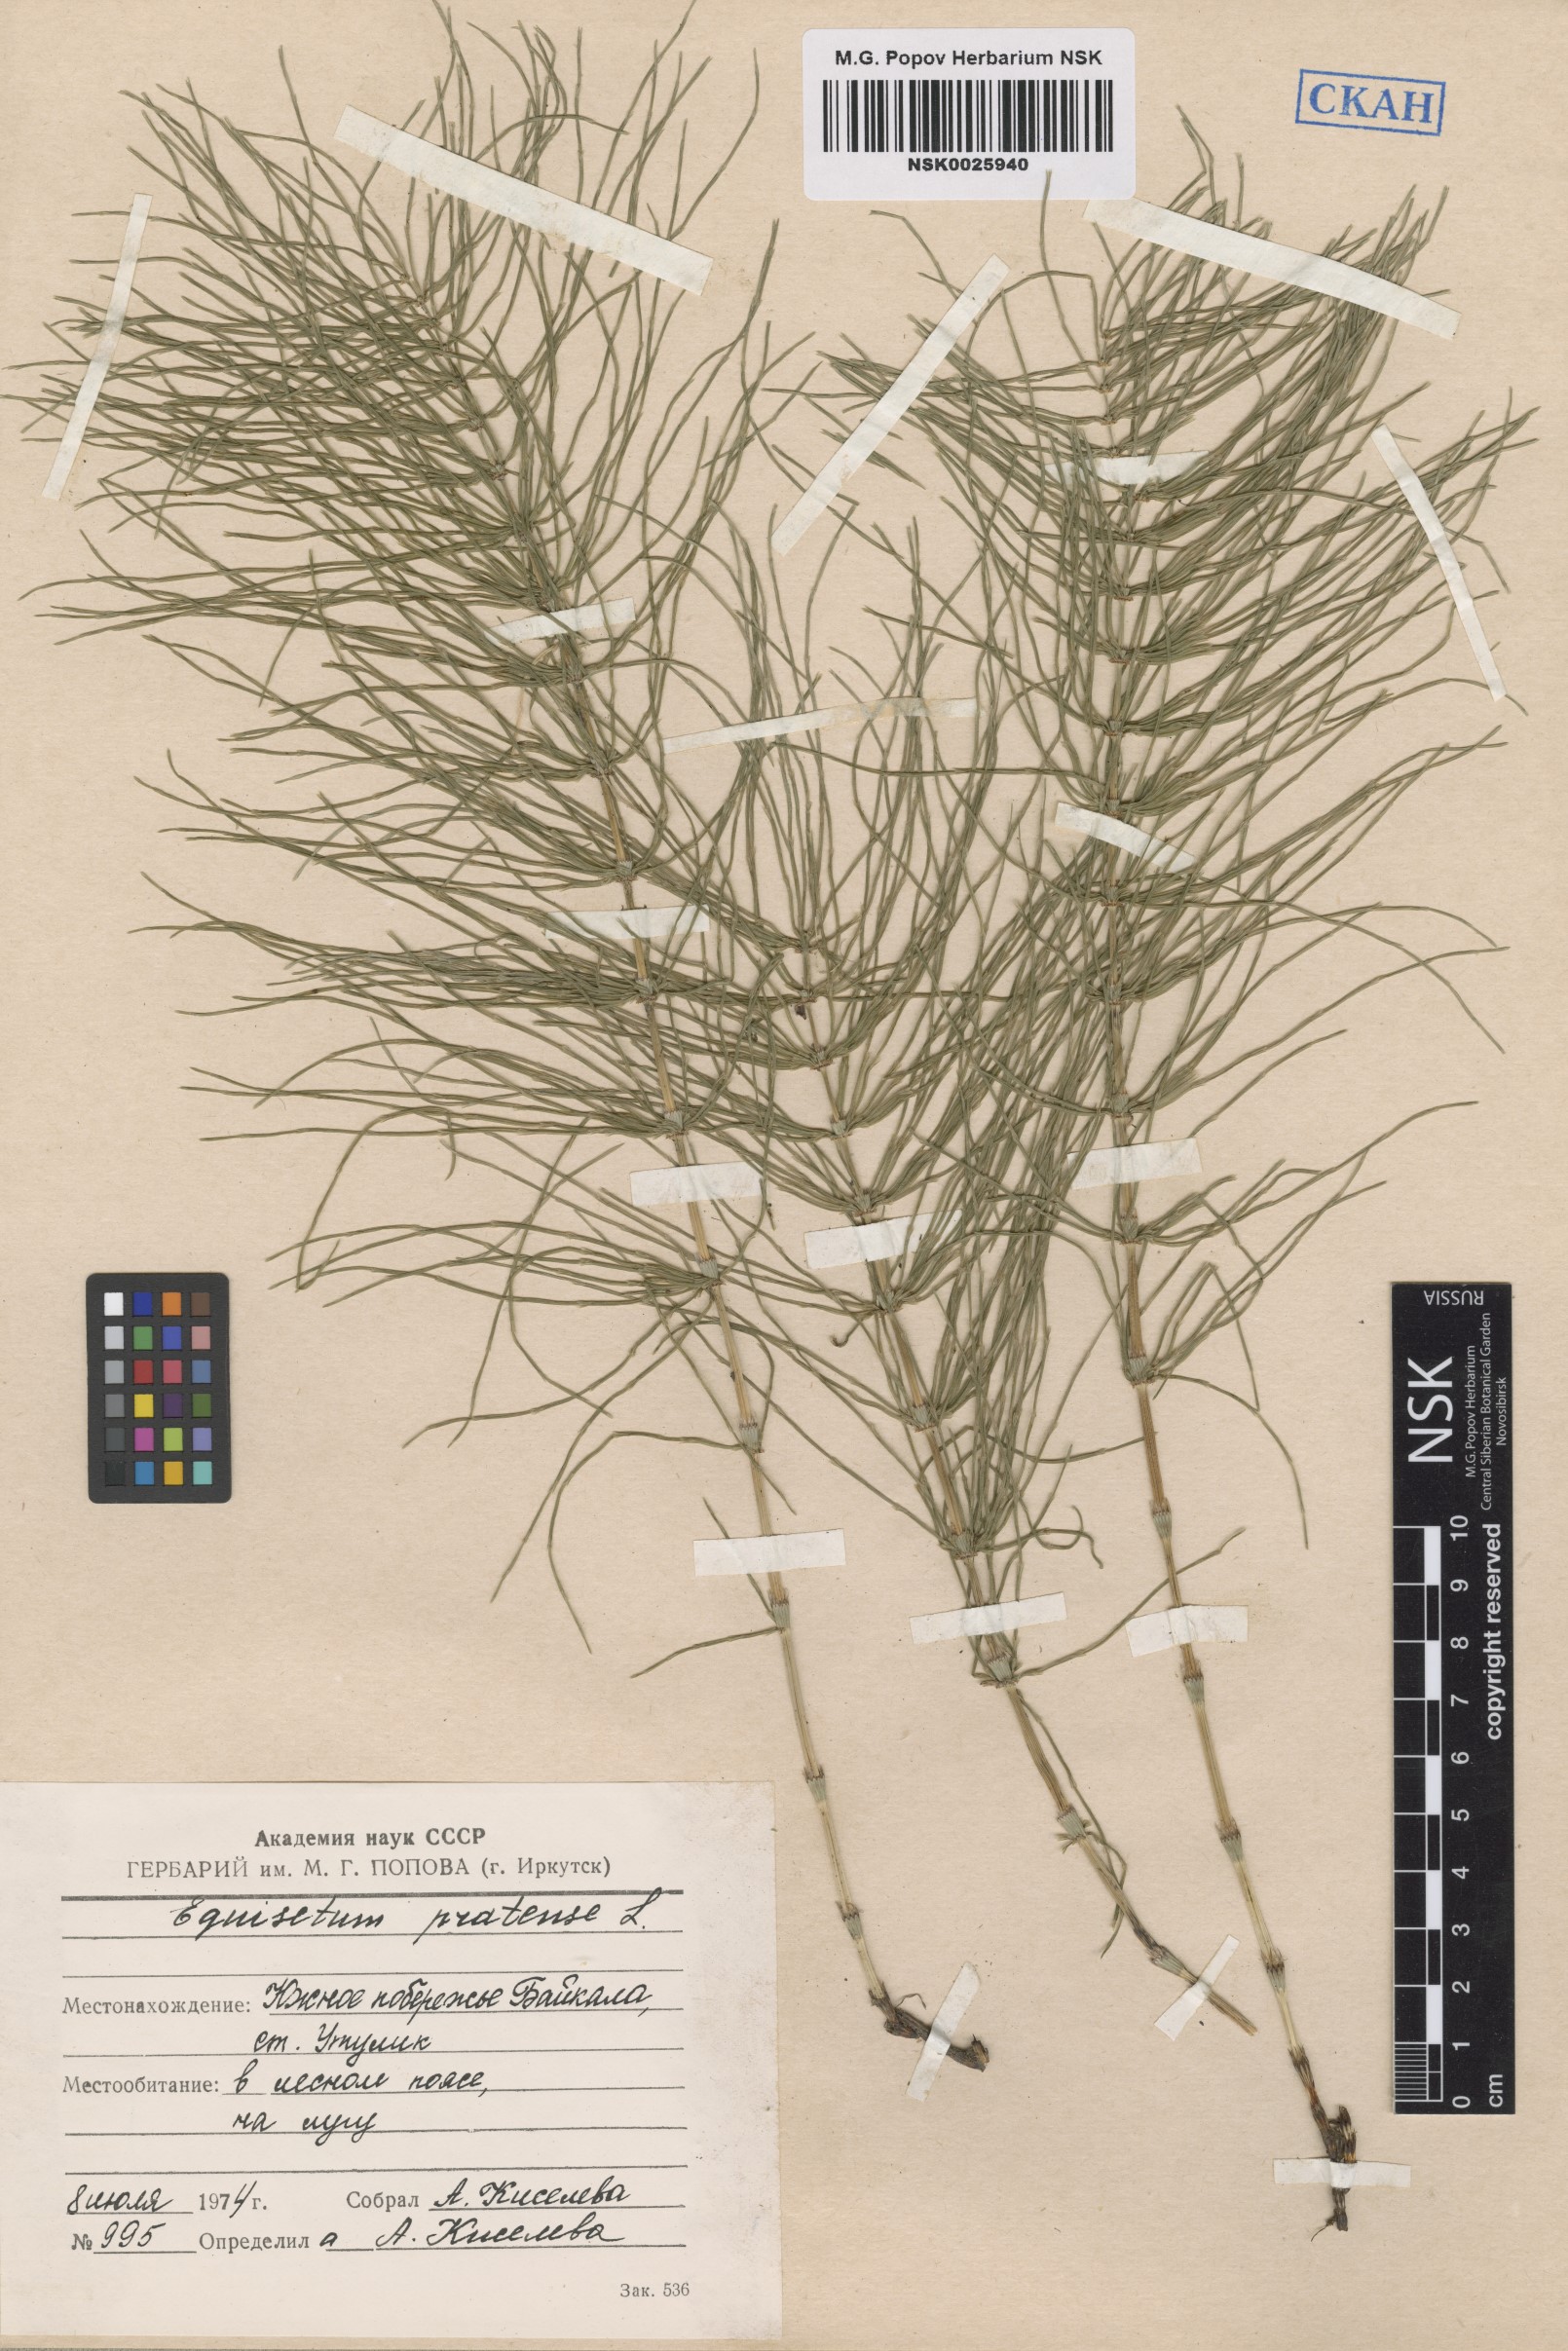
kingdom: Plantae
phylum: Tracheophyta
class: Polypodiopsida
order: Equisetales
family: Equisetaceae
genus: Equisetum
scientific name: Equisetum pratense
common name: Meadow horsetail
